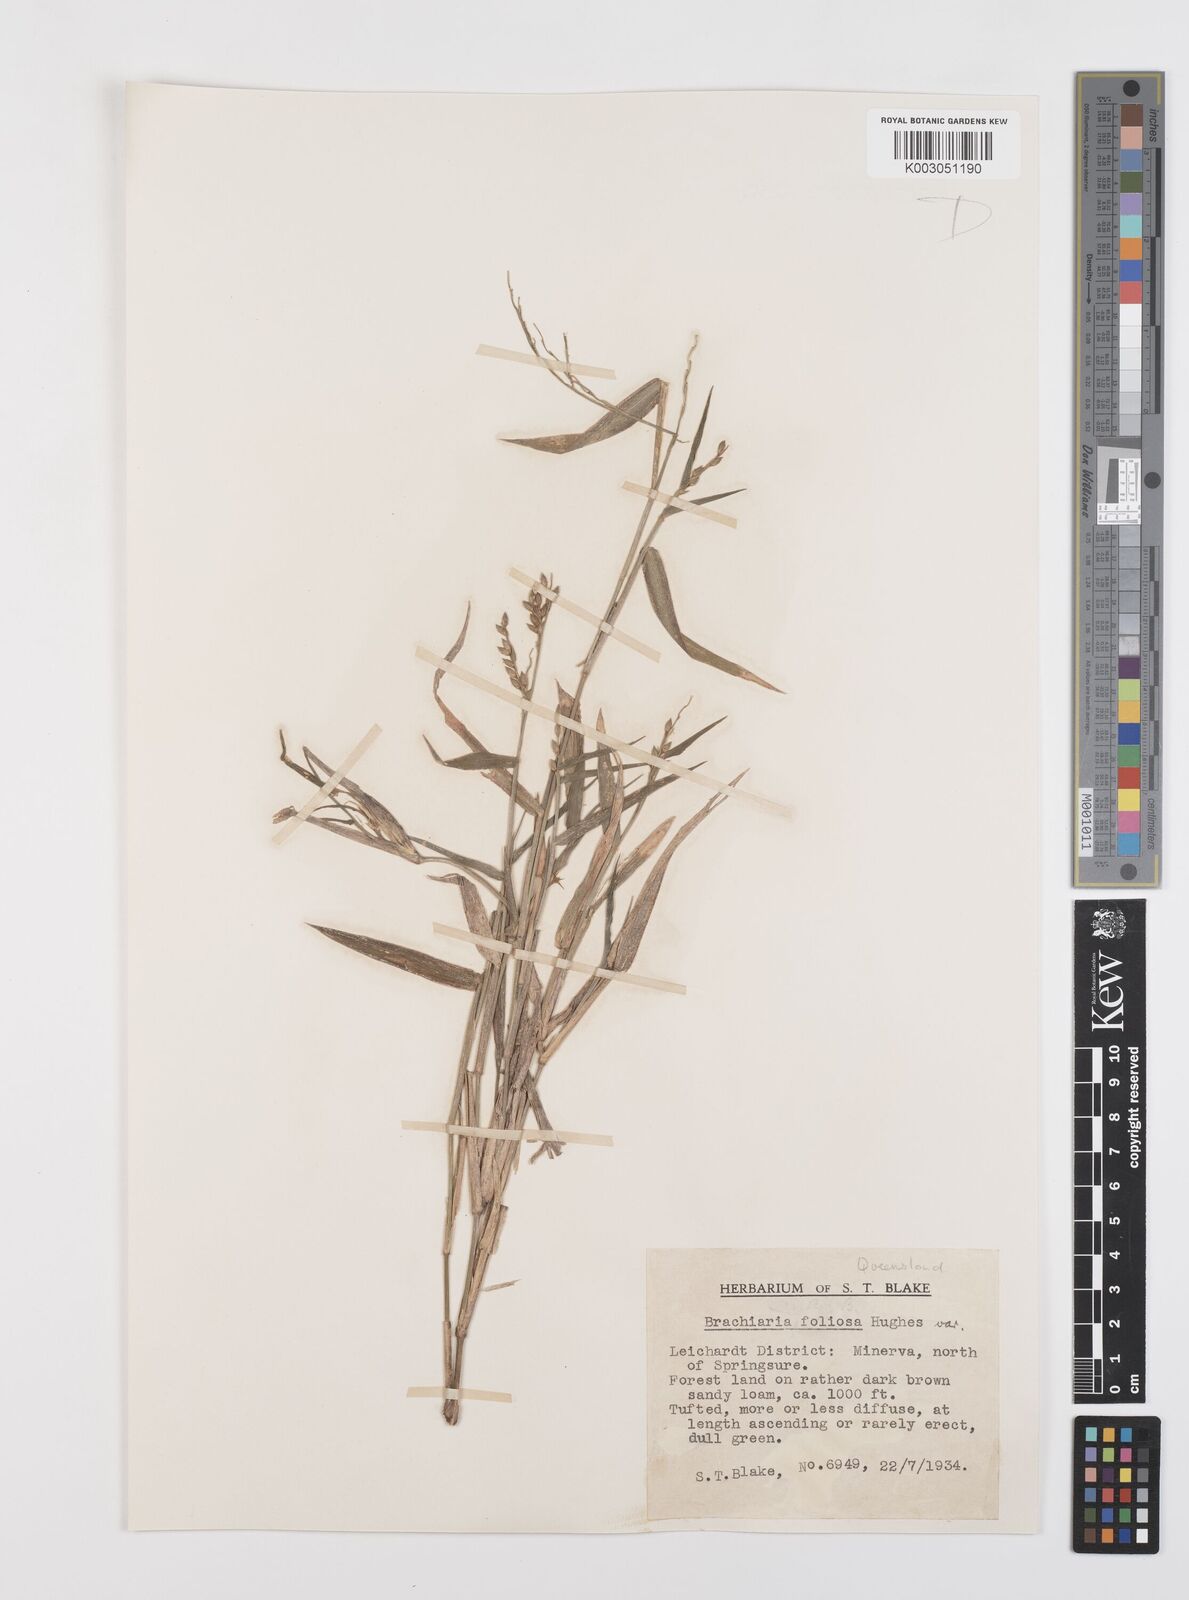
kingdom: Plantae
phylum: Tracheophyta
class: Liliopsida
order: Poales
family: Poaceae
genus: Urochloa
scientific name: Urochloa foliosa
